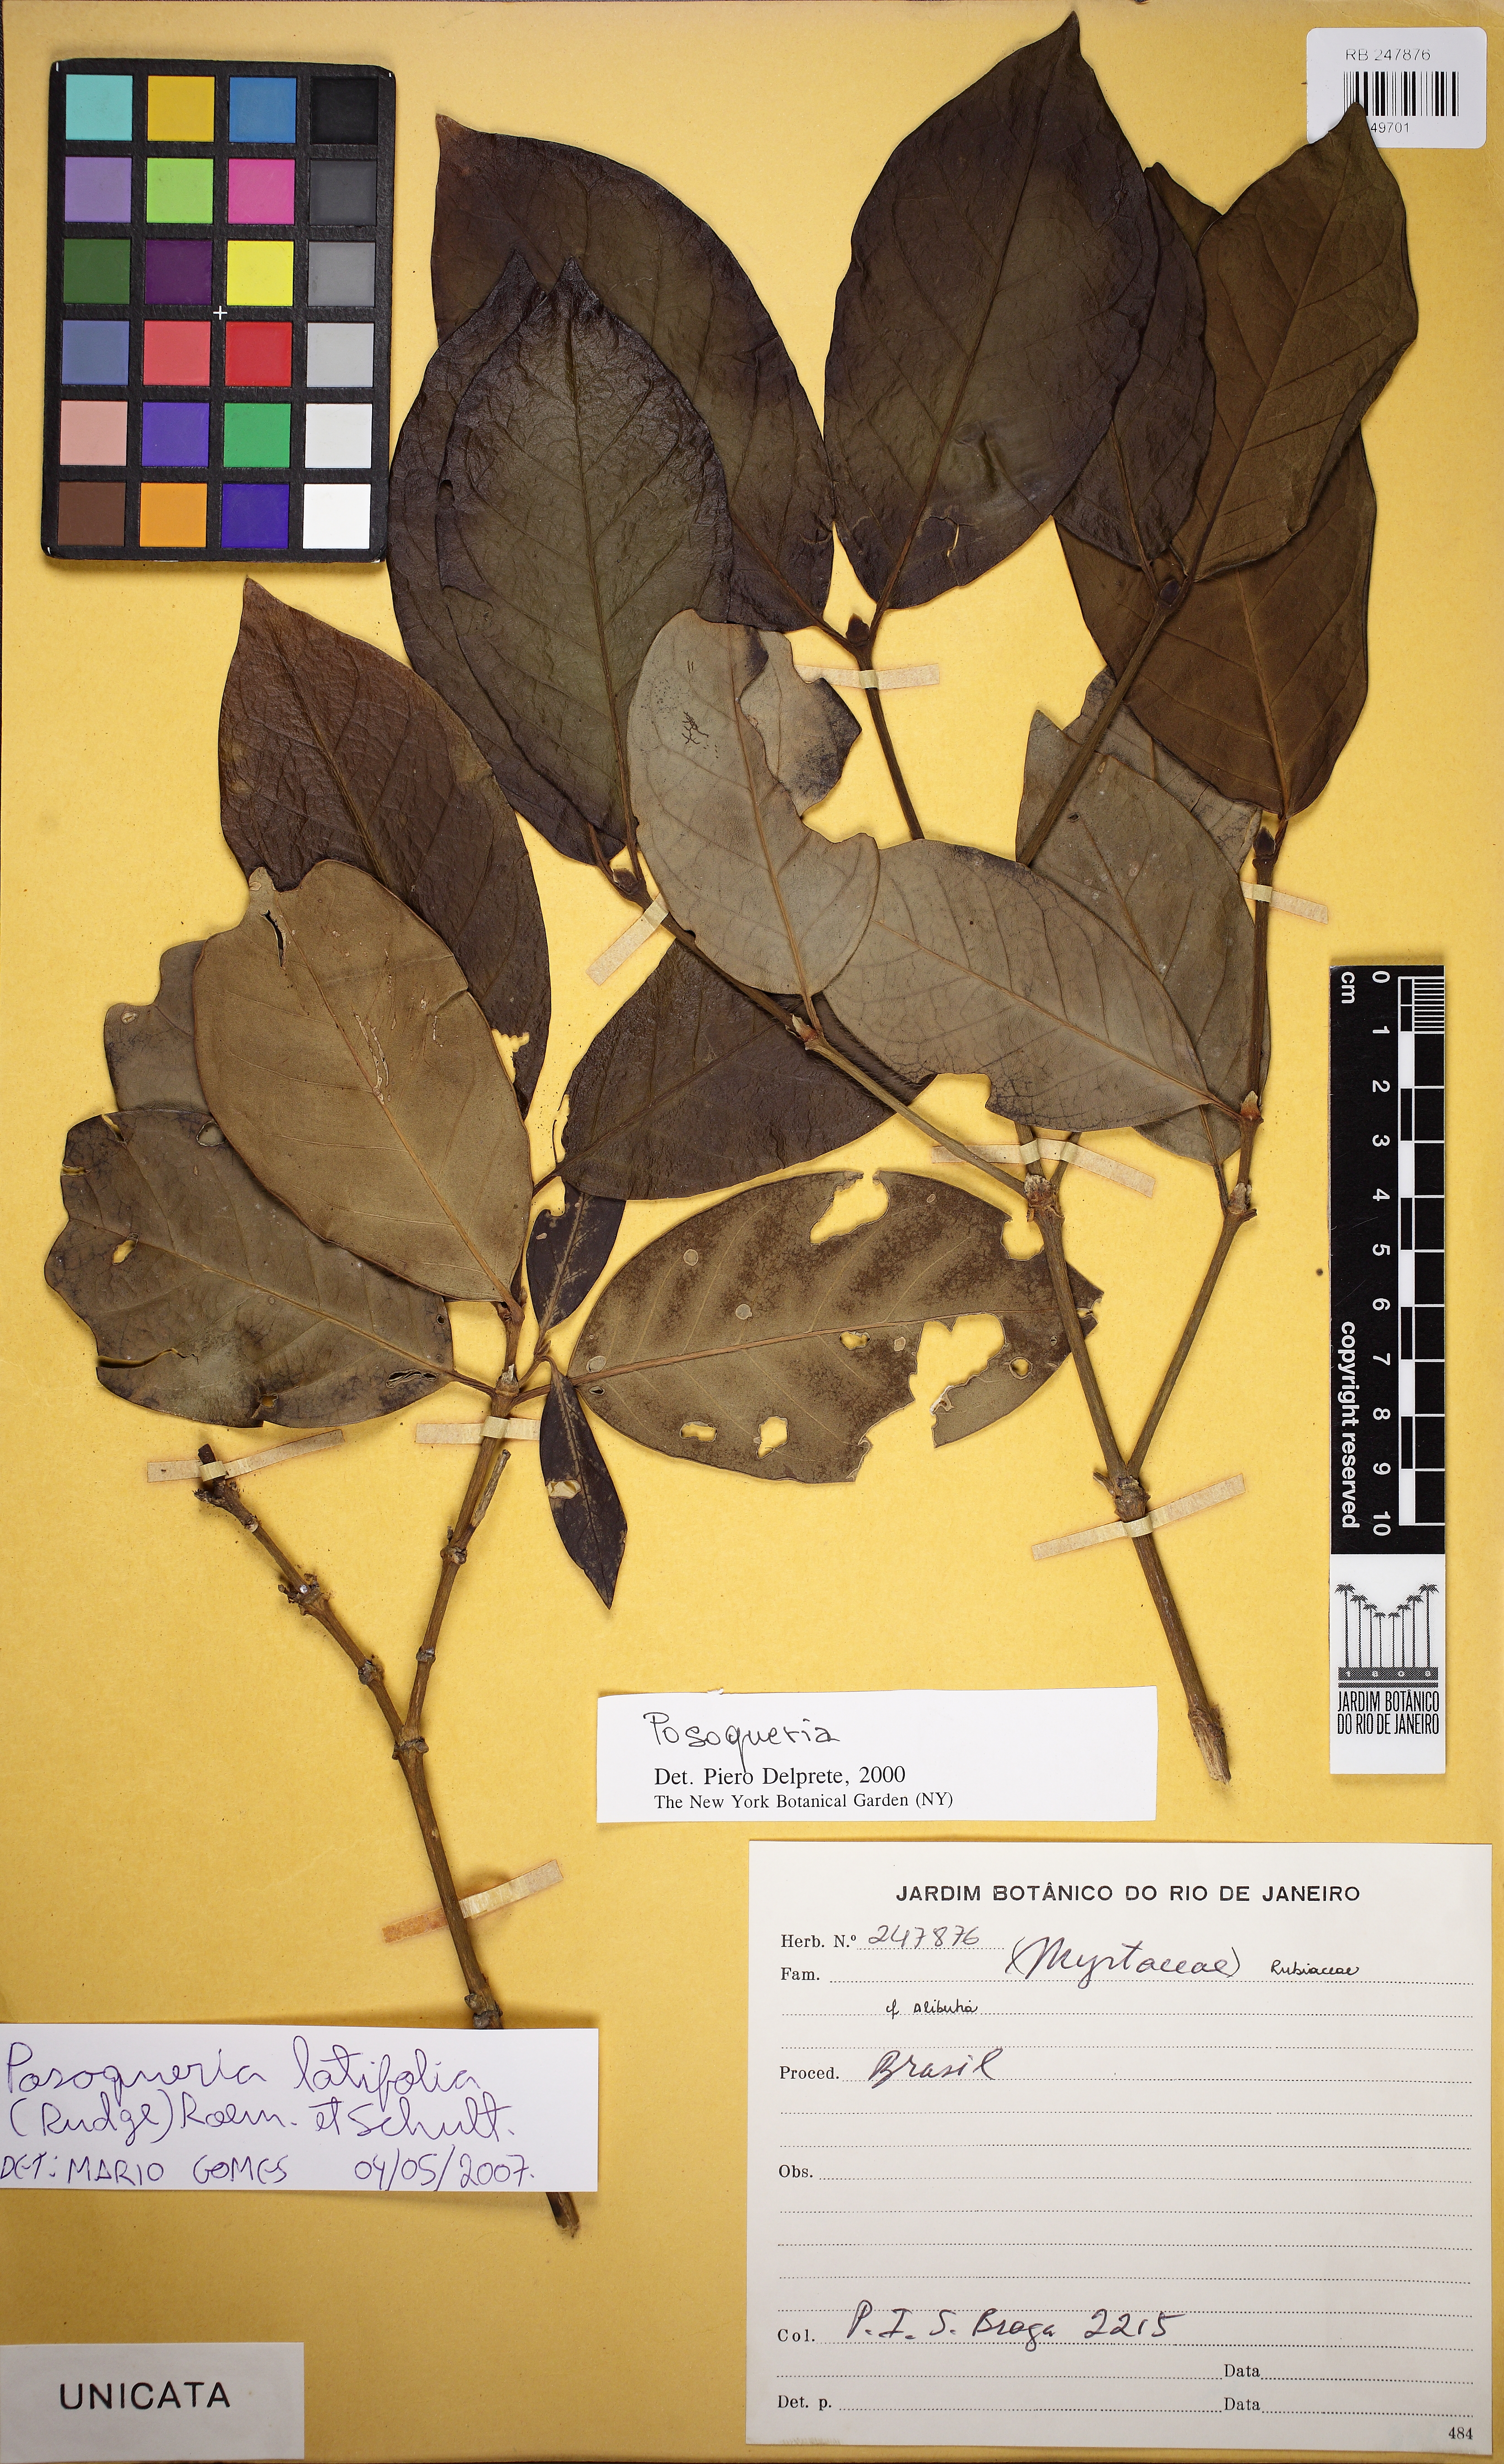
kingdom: Plantae
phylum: Tracheophyta
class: Magnoliopsida
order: Gentianales
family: Rubiaceae
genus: Posoqueria
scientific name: Posoqueria latifolia
